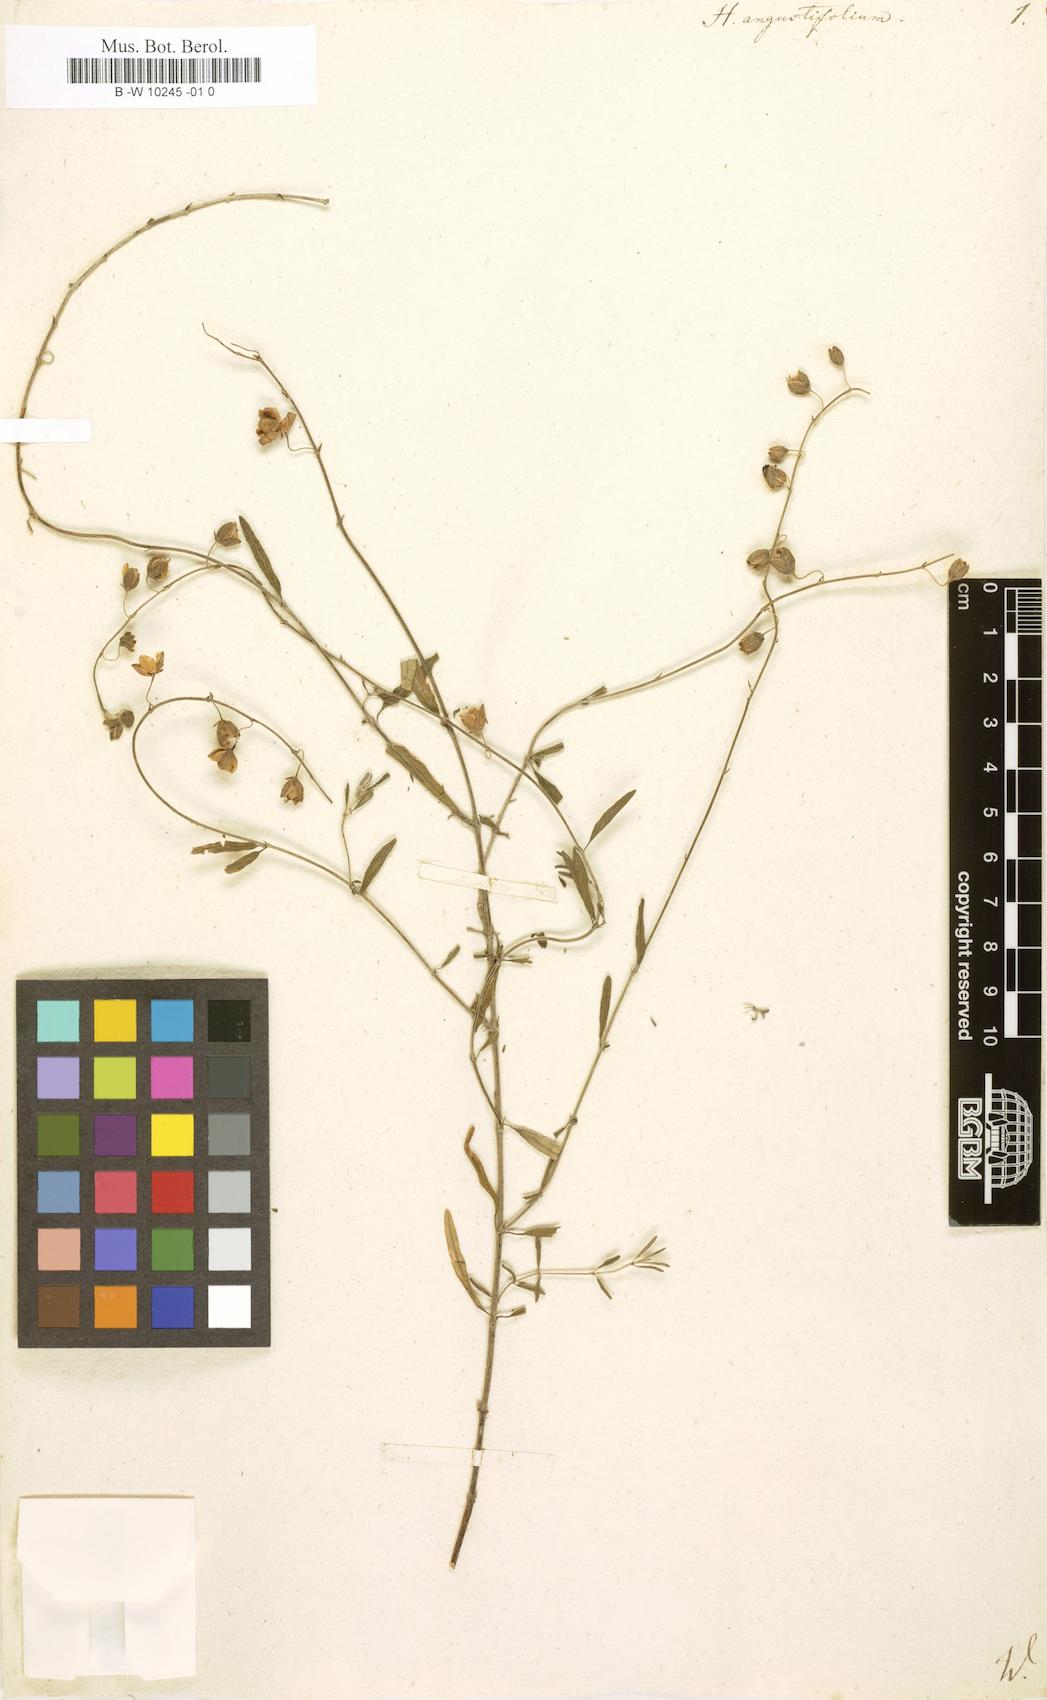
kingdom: Plantae
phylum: Tracheophyta
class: Magnoliopsida
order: Malvales
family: Cistaceae
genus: Helianthemum
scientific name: Helianthemum nummularium
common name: Common rock-rose
